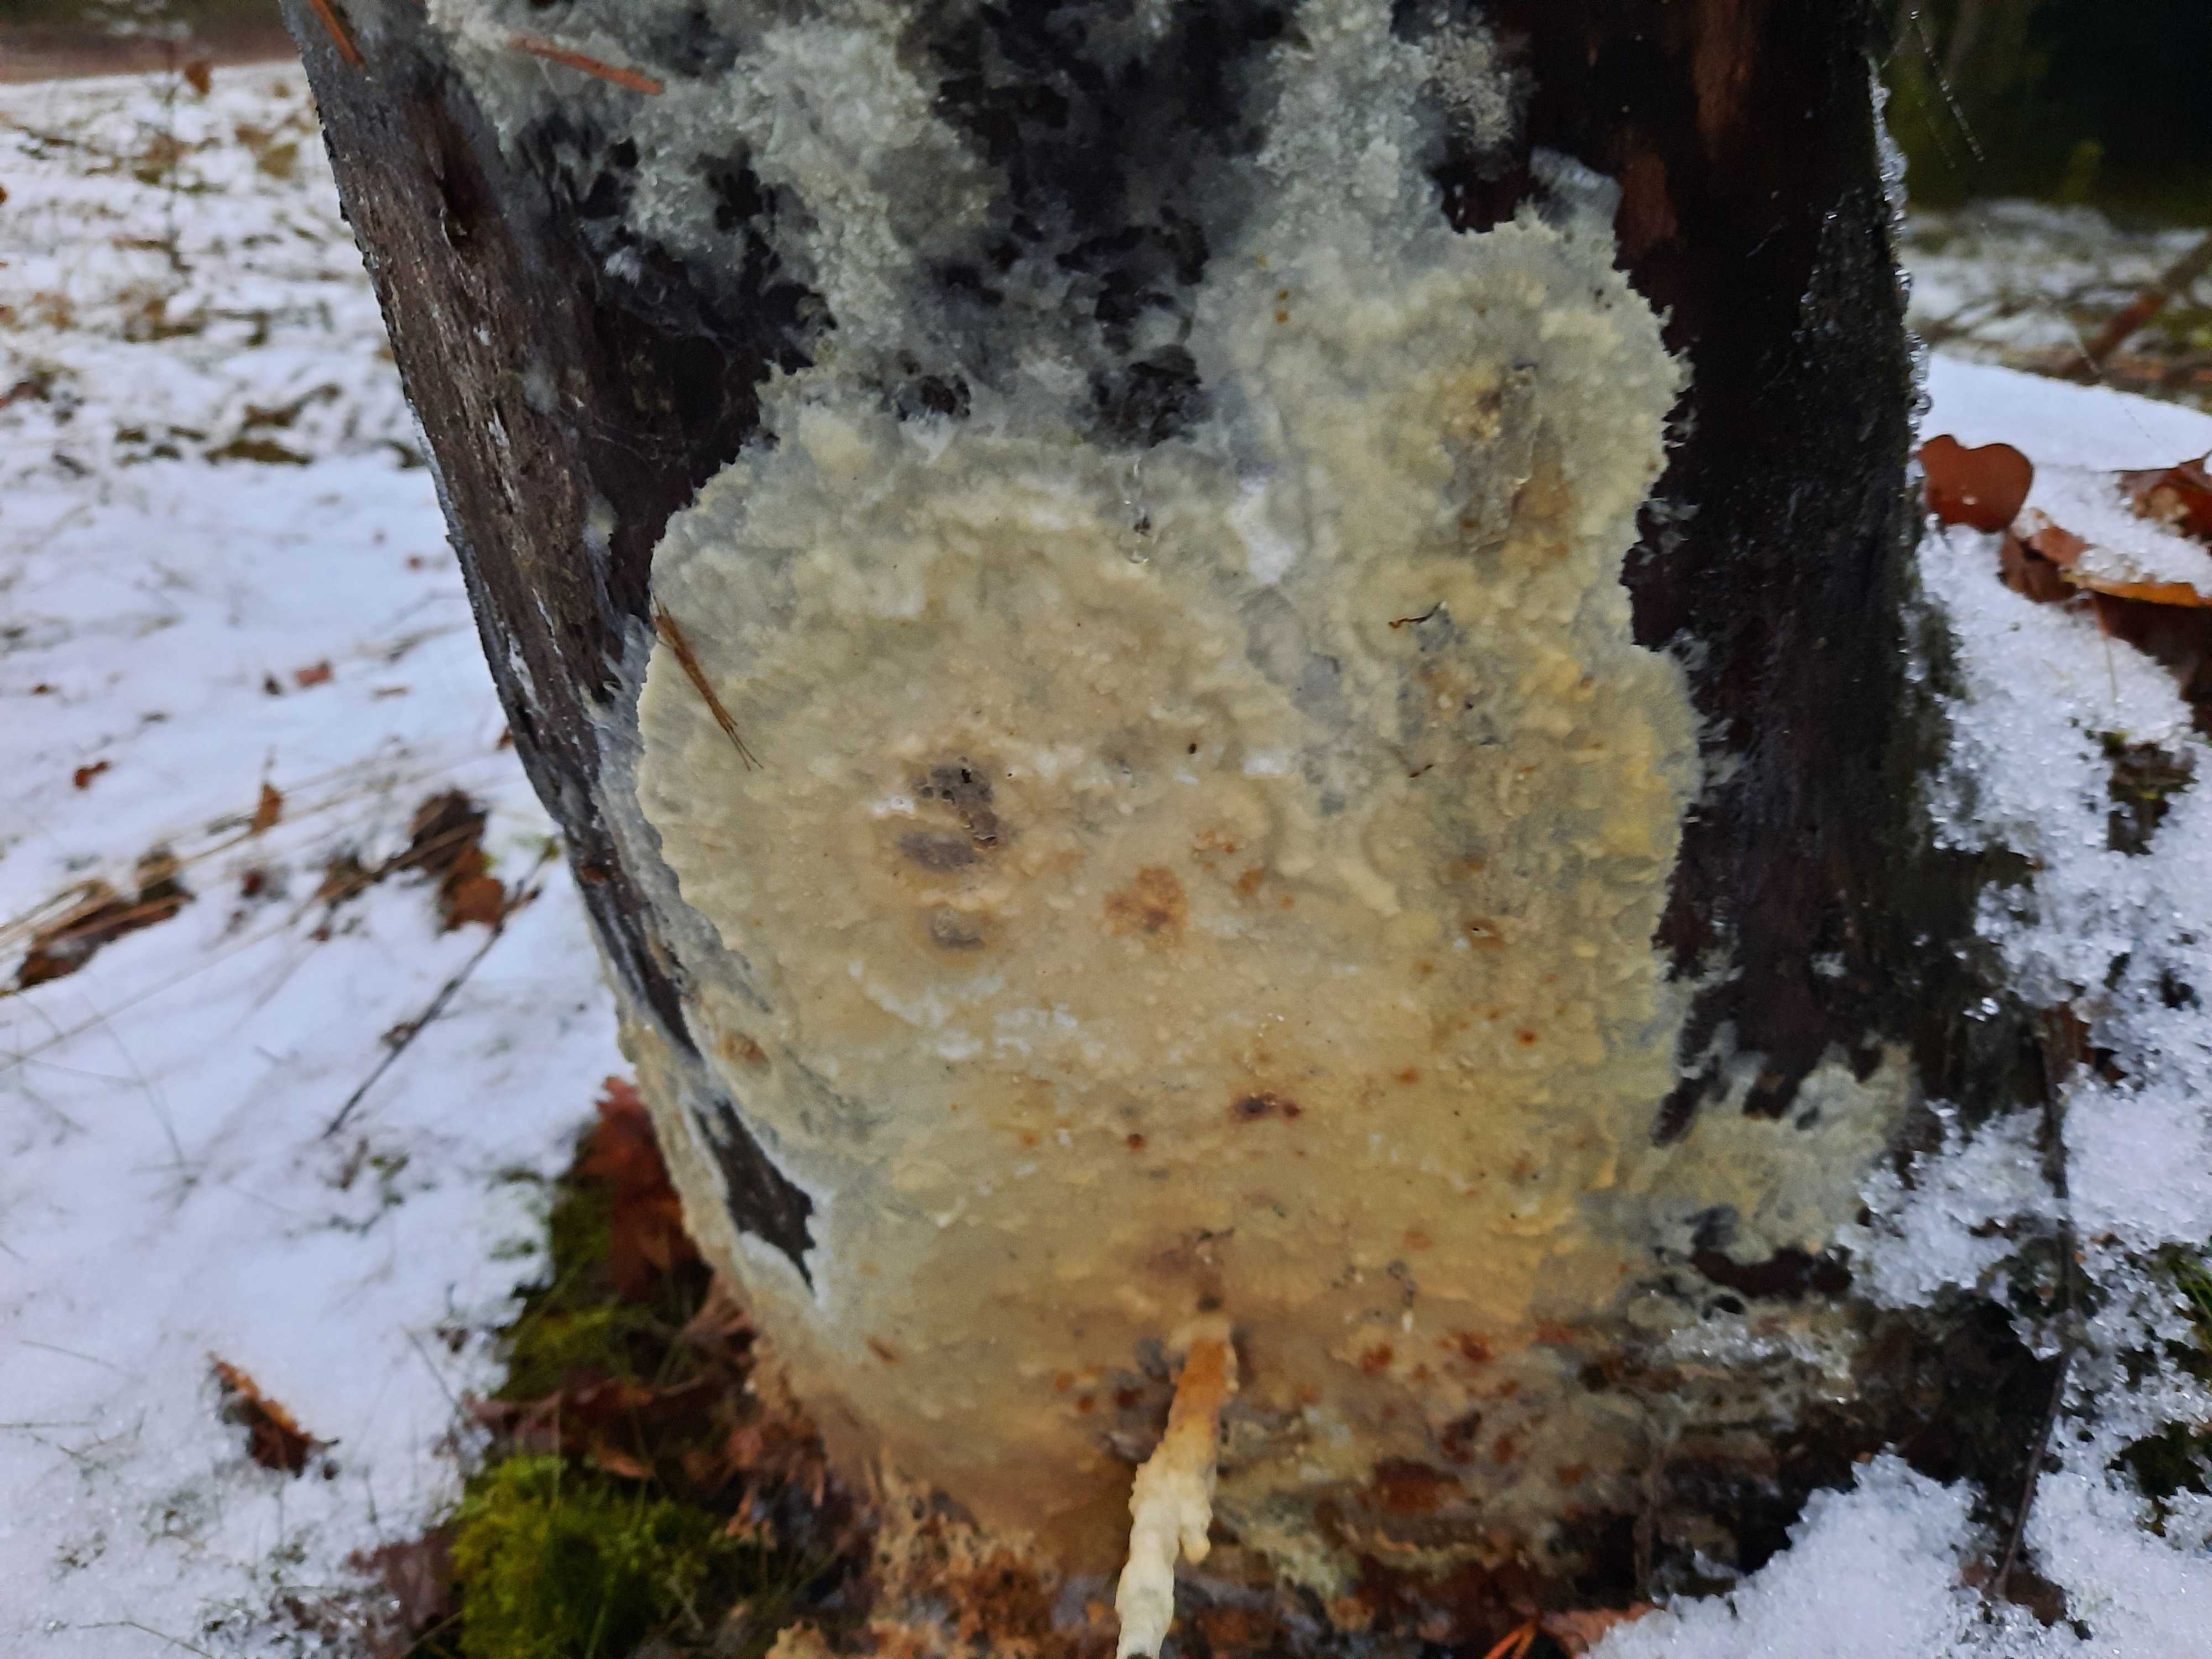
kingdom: Fungi
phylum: Basidiomycota
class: Agaricomycetes
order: Polyporales
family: Phanerochaetaceae
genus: Phlebiopsis
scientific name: Phlebiopsis gigantea
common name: kæmpebarksvamp
